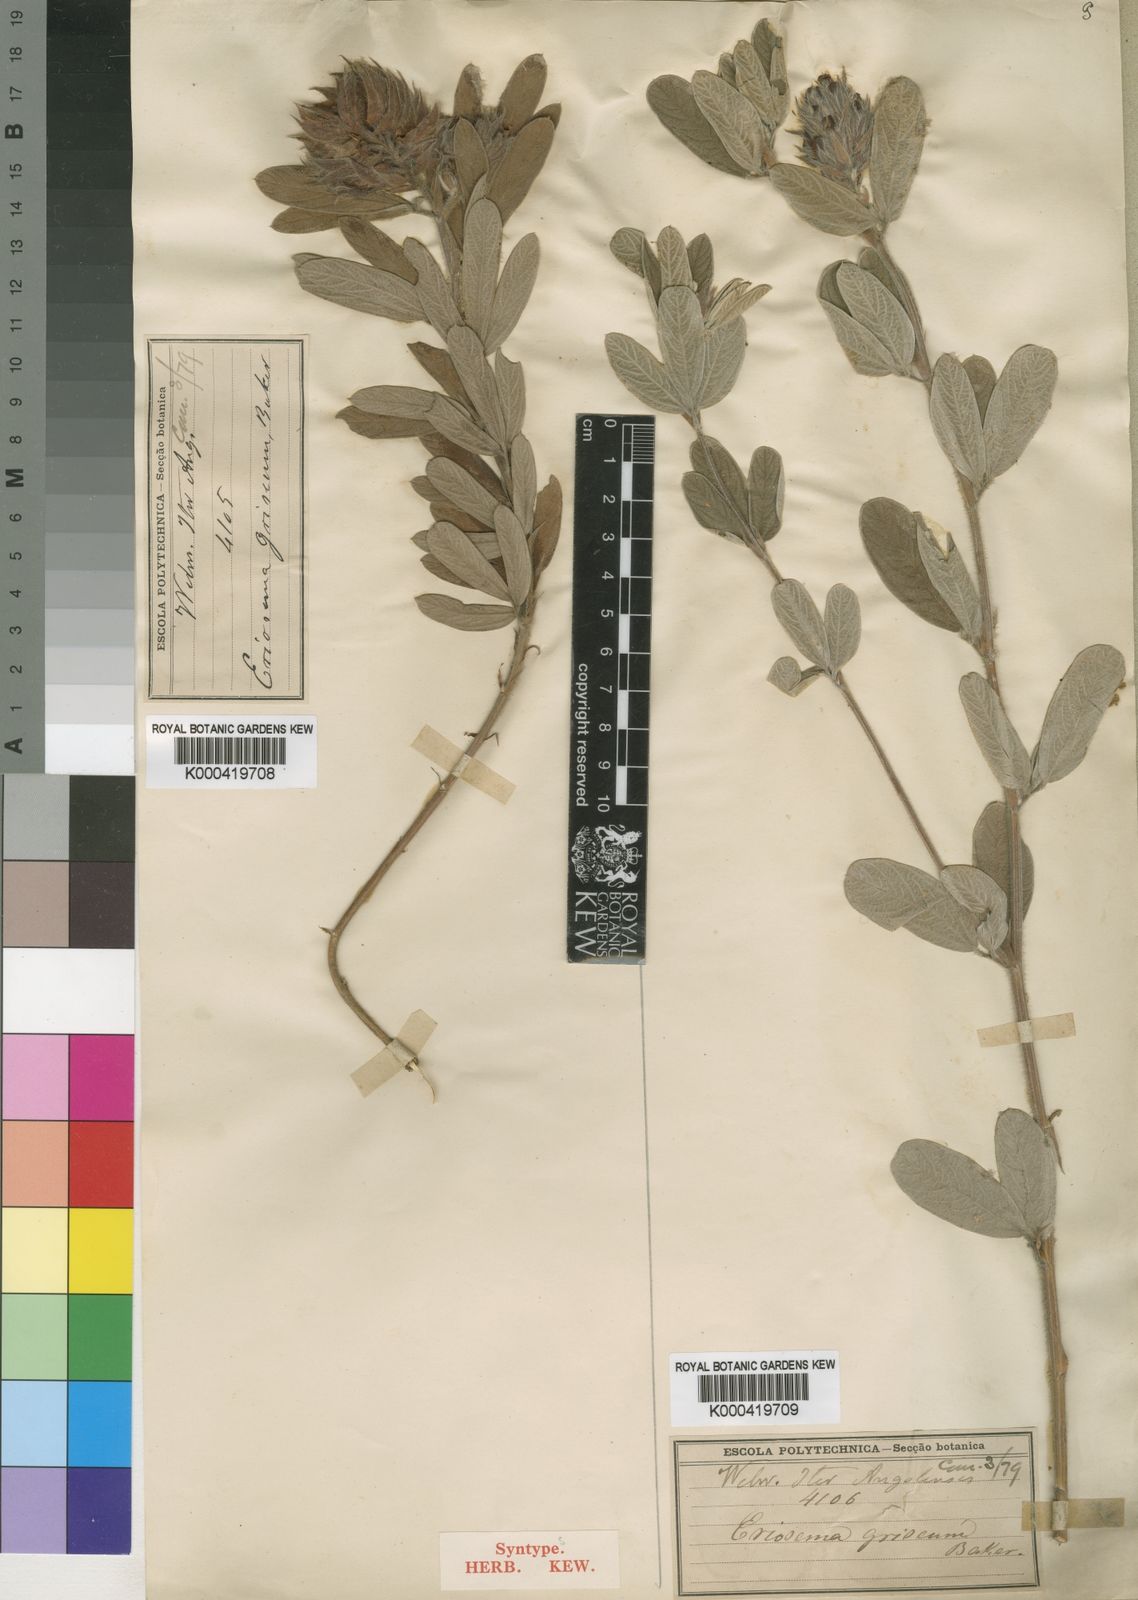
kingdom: Plantae
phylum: Tracheophyta
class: Magnoliopsida
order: Fabales
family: Fabaceae
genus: Eriosema
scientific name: Eriosema griseum
